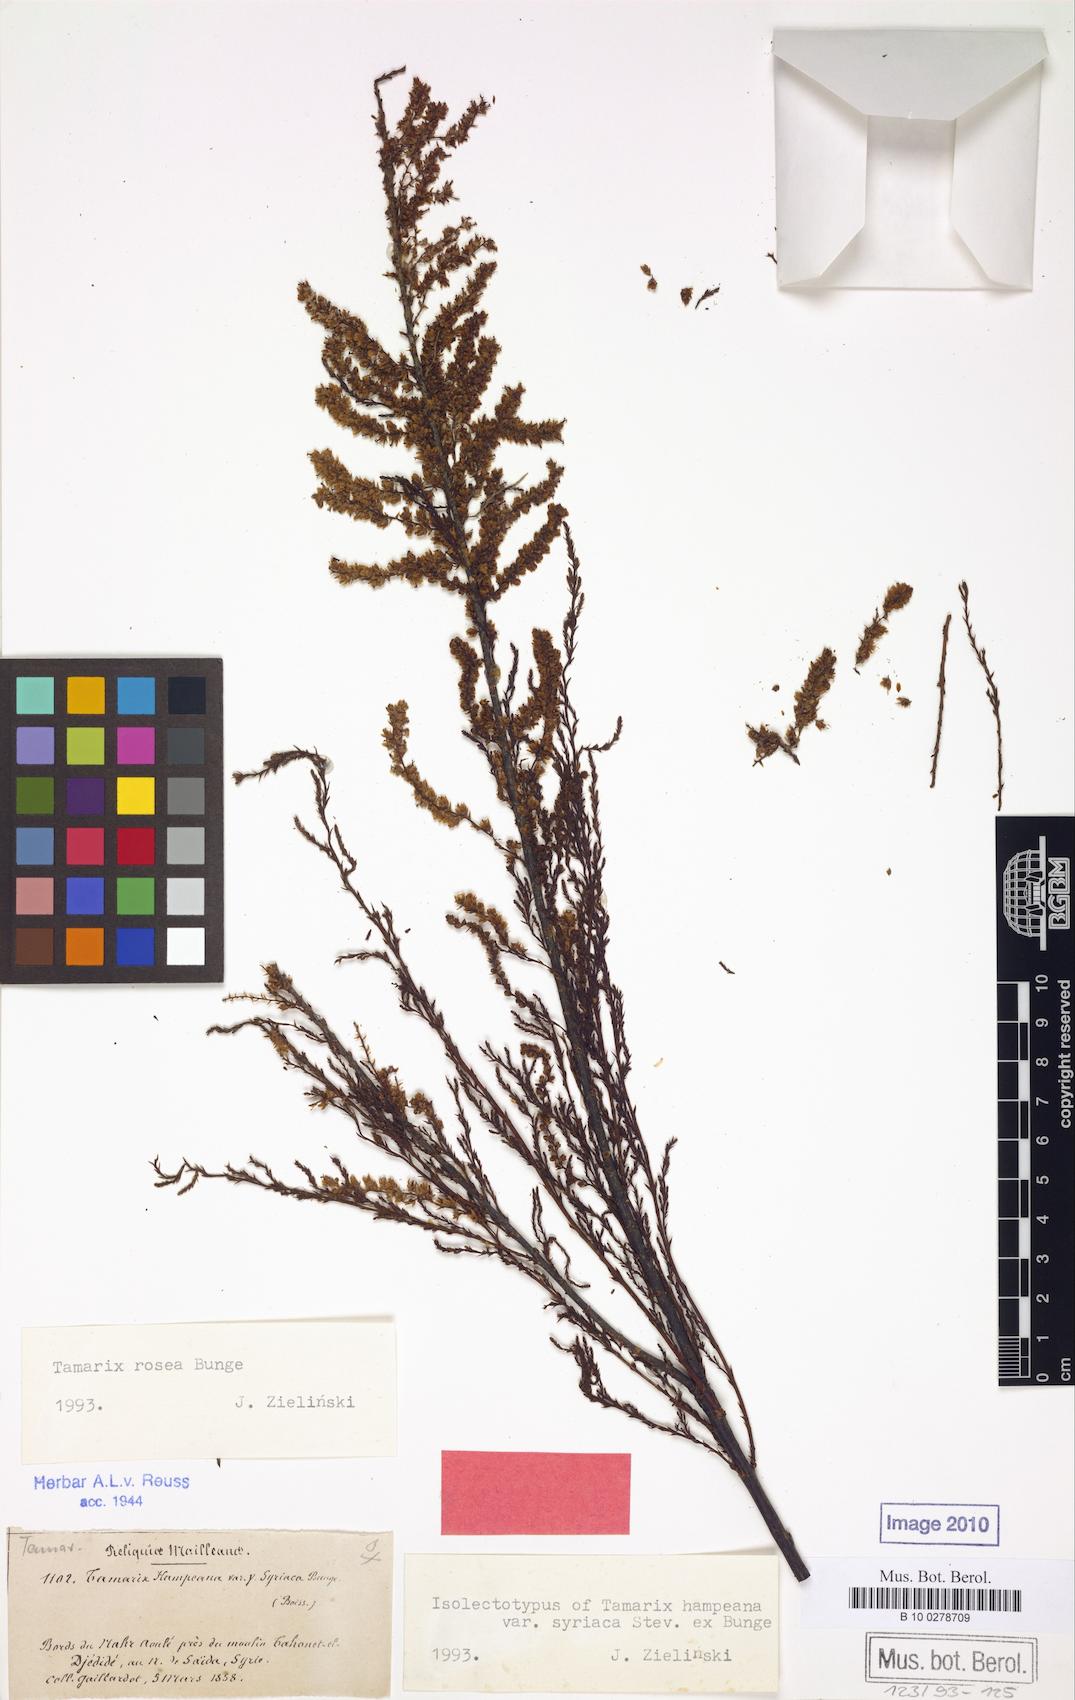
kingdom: Plantae
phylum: Tracheophyta
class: Magnoliopsida
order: Caryophyllales
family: Tamaricaceae
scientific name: Tamaricaceae
